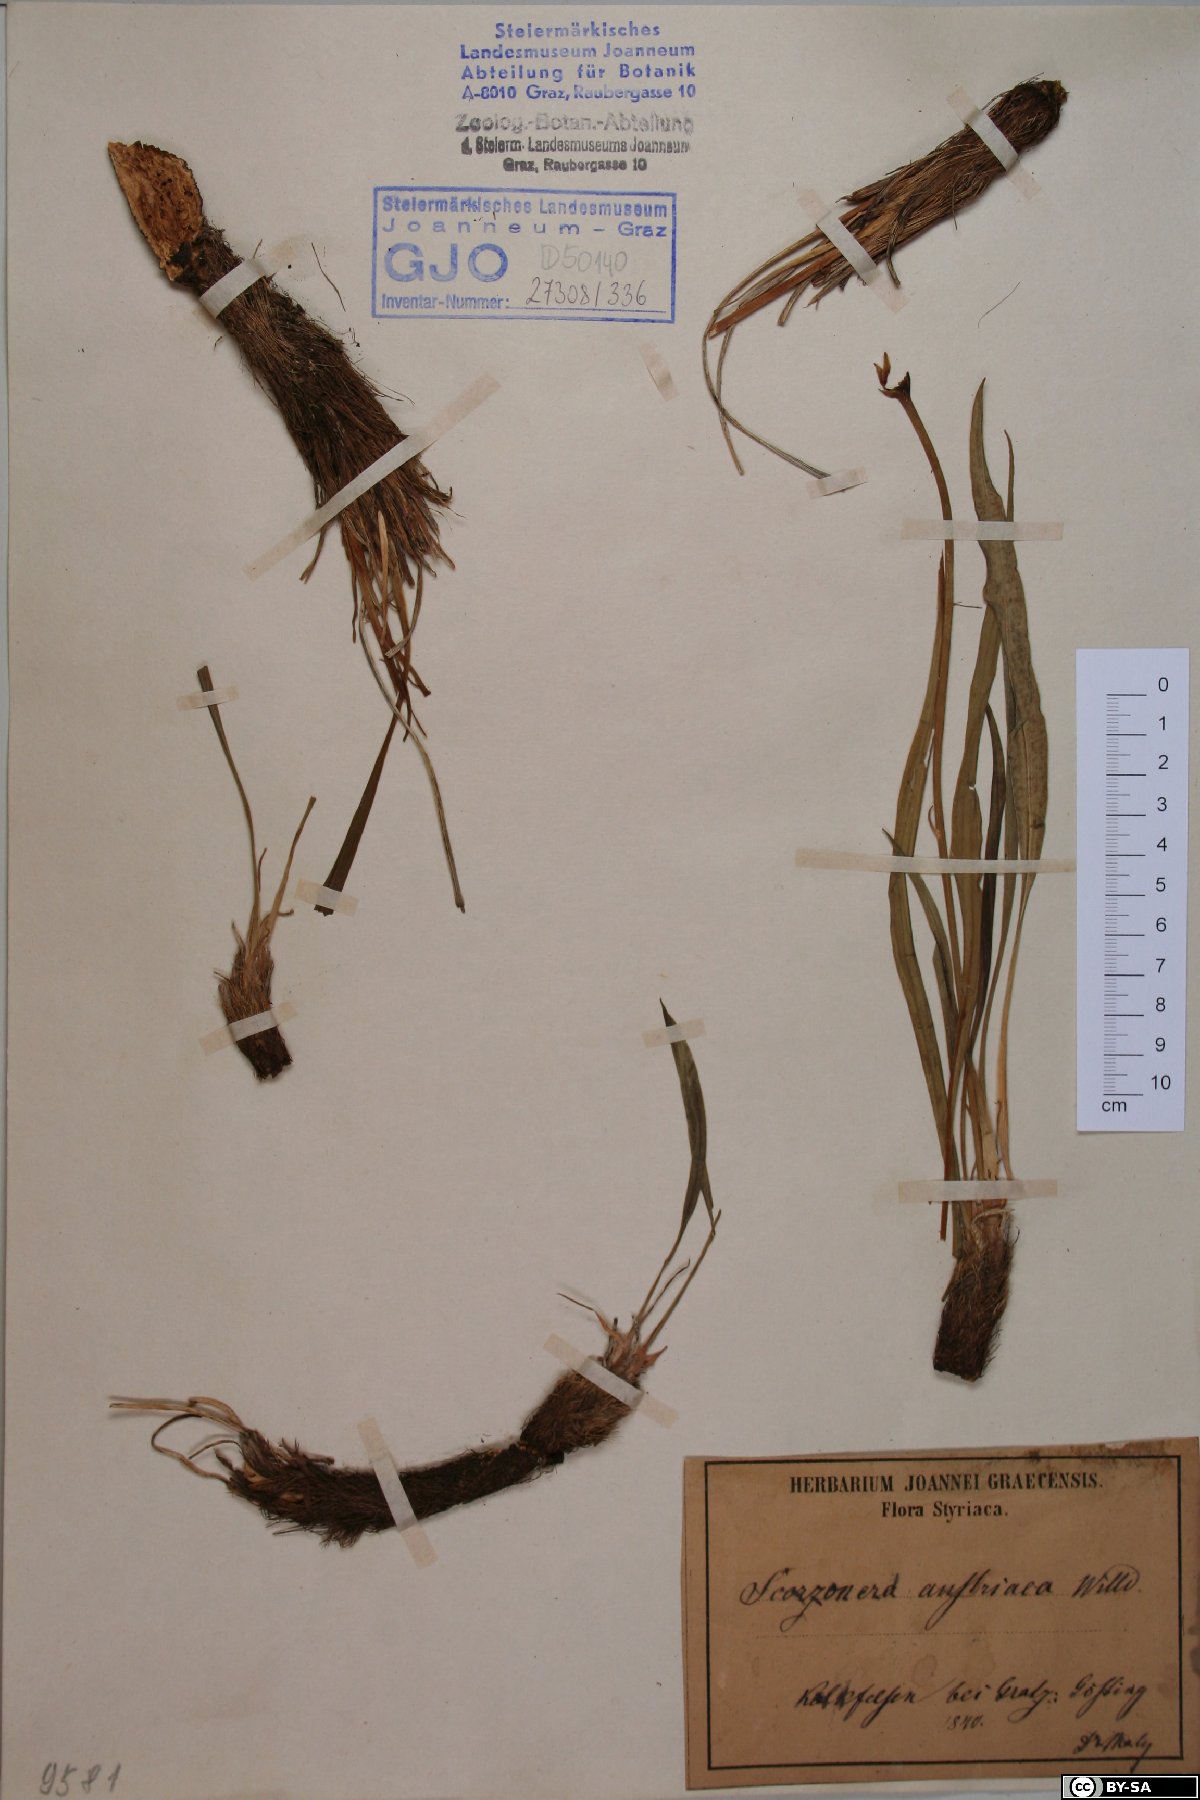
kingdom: Plantae
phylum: Tracheophyta
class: Magnoliopsida
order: Asterales
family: Asteraceae
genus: Takhtajaniantha
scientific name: Takhtajaniantha austriaca
